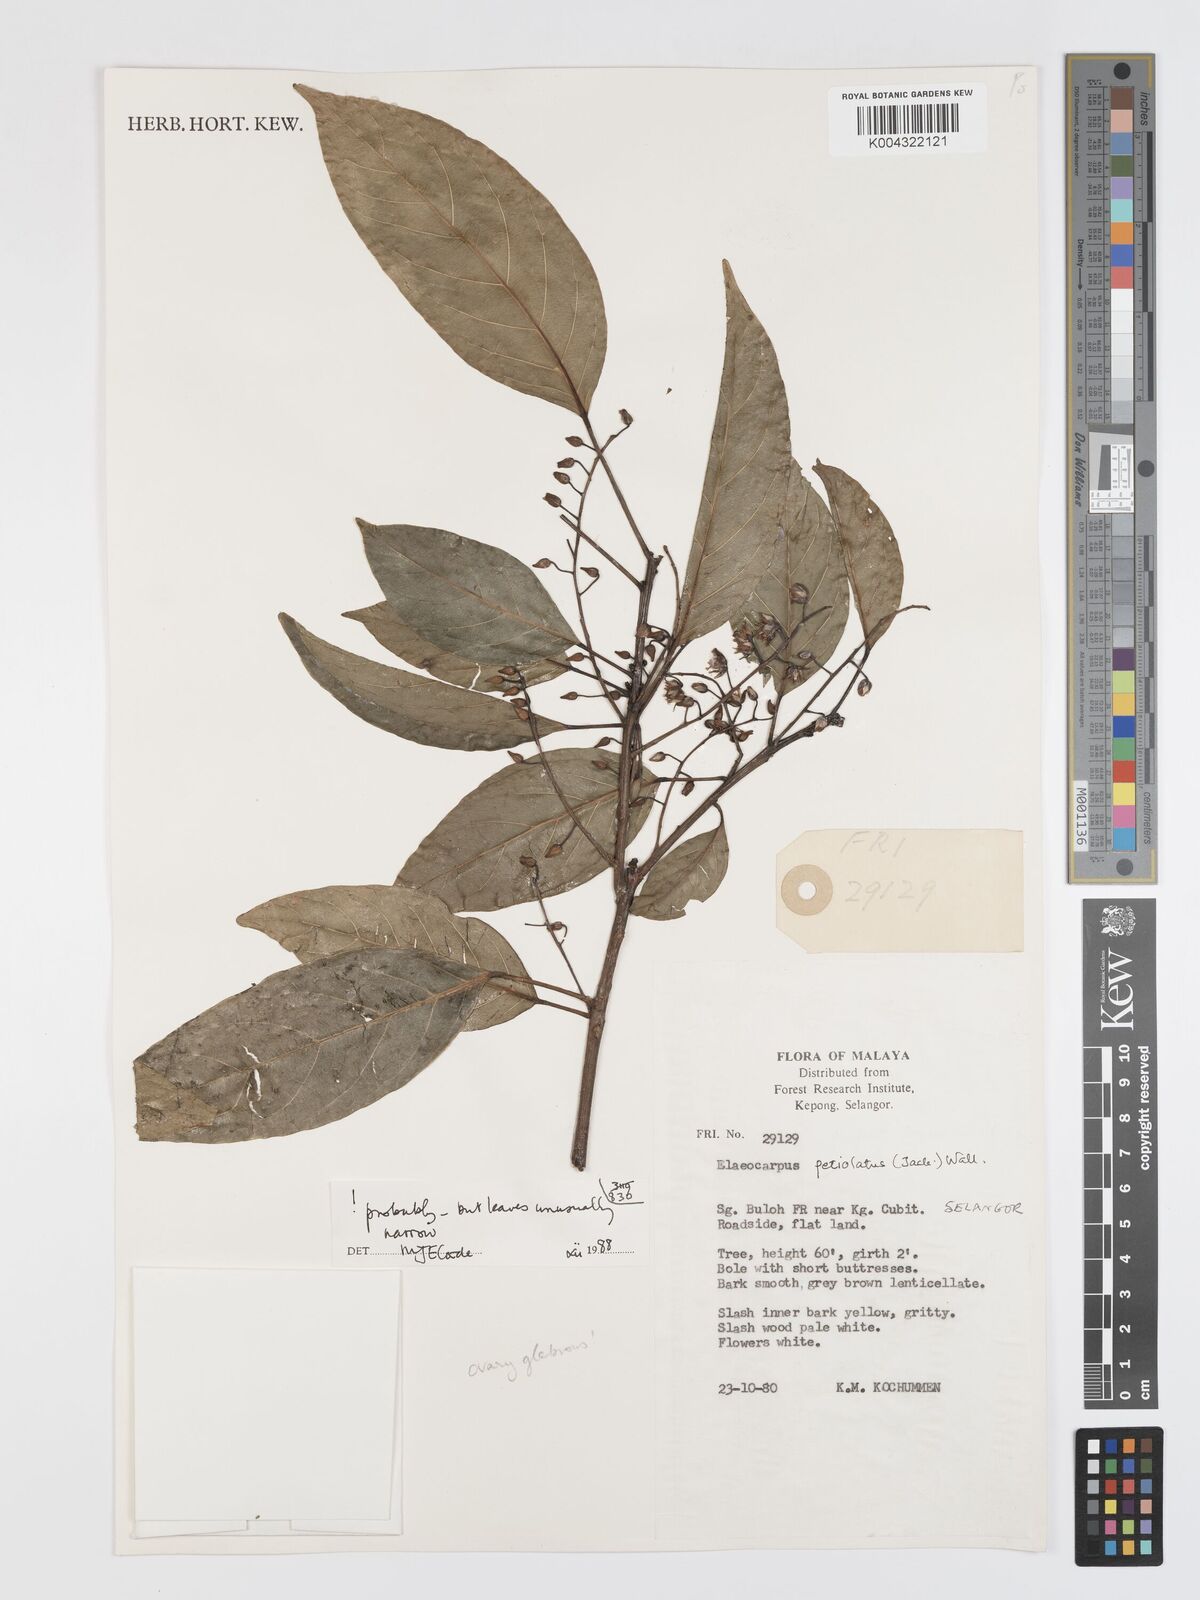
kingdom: Plantae
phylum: Tracheophyta
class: Magnoliopsida
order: Oxalidales
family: Elaeocarpaceae
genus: Elaeocarpus
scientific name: Elaeocarpus petiolatus
